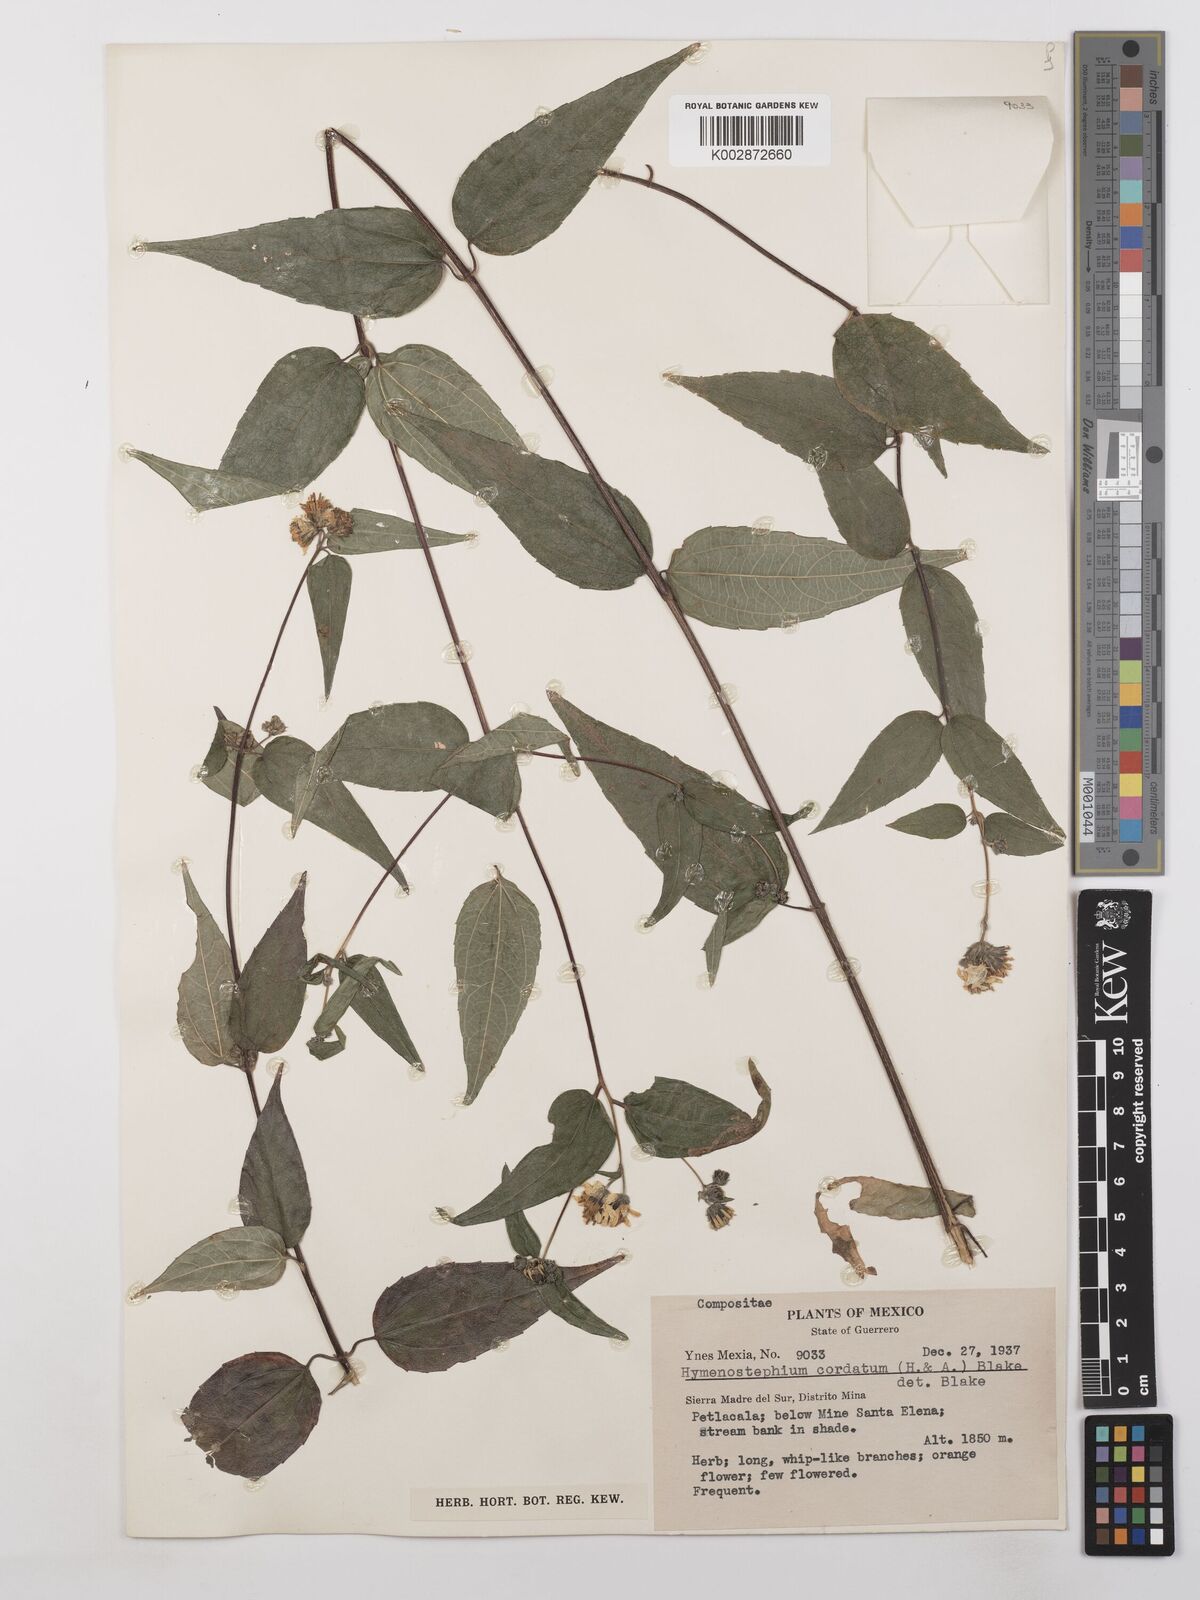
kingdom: Plantae
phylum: Tracheophyta
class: Magnoliopsida
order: Asterales
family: Asteraceae
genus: Hymenostephium
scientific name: Hymenostephium cordatum
